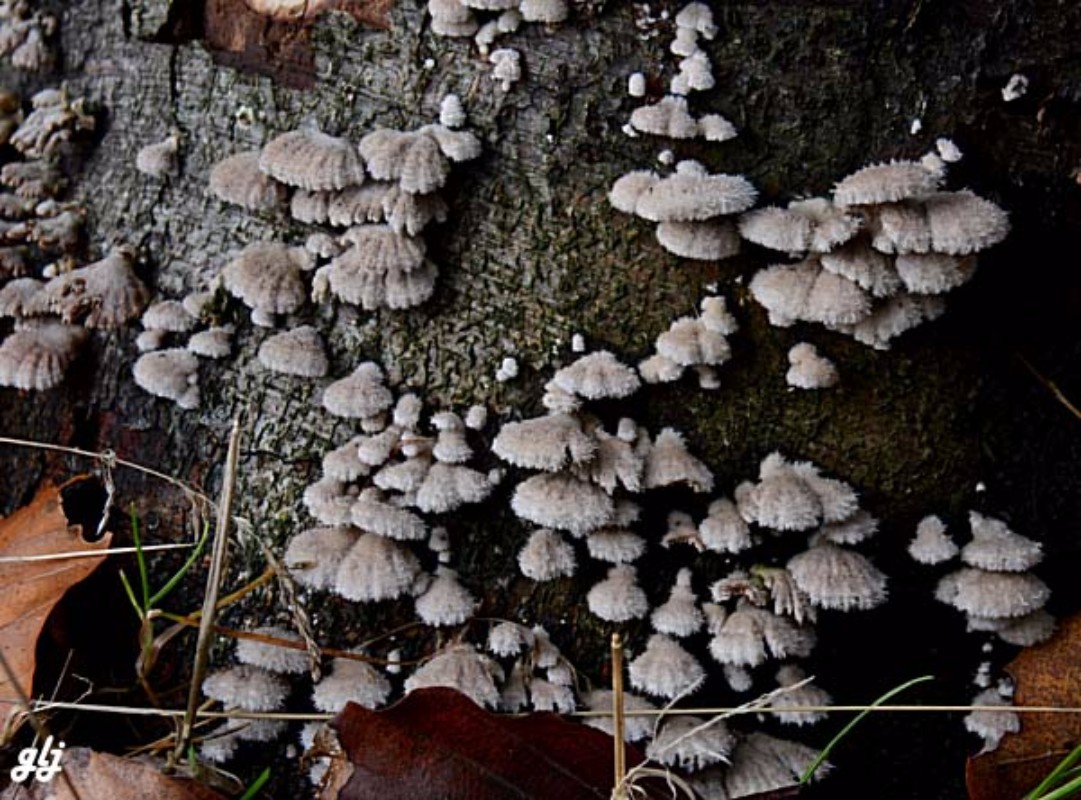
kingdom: Fungi
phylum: Basidiomycota
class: Agaricomycetes
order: Agaricales
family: Schizophyllaceae
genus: Schizophyllum
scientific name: Schizophyllum commune
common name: kløvblad
